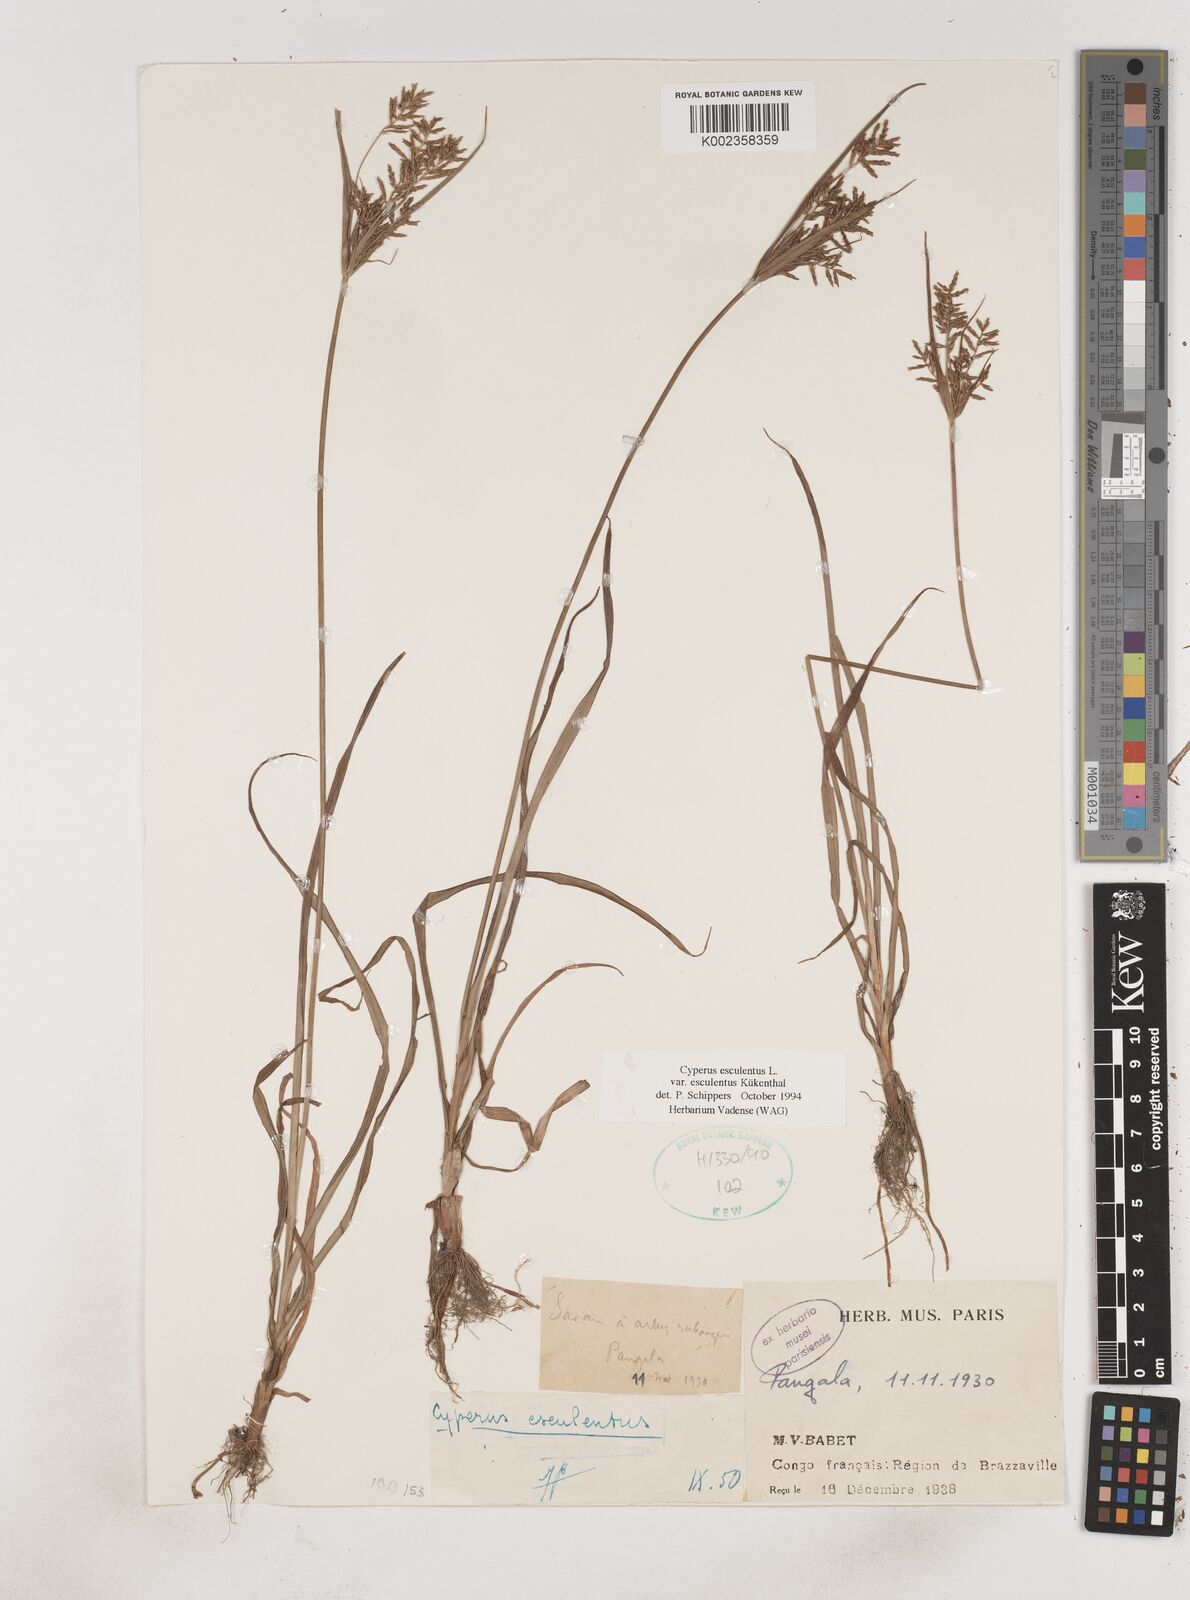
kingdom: Plantae
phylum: Tracheophyta
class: Liliopsida
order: Poales
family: Cyperaceae
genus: Cyperus
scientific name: Cyperus esculentus
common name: Yellow nutsedge
